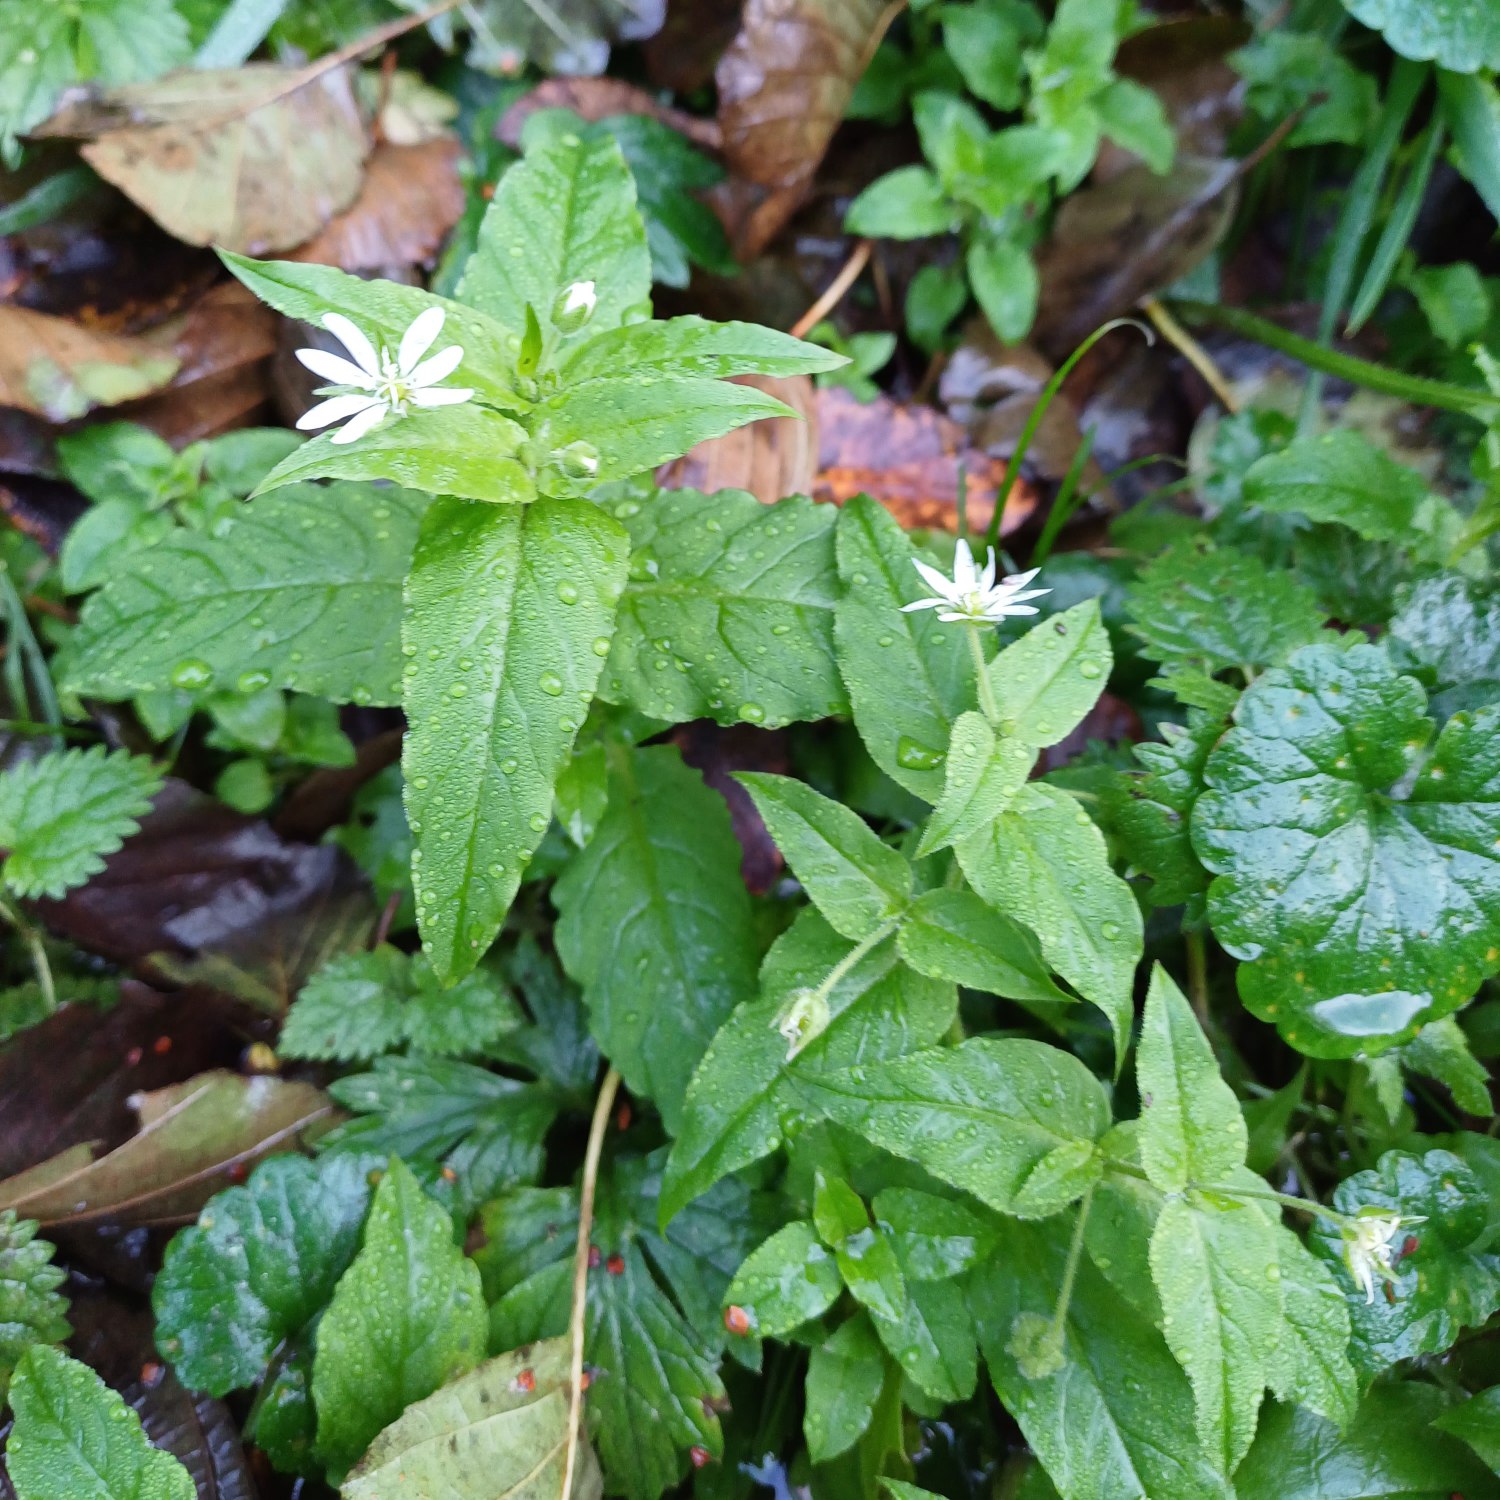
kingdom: Plantae
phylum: Tracheophyta
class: Magnoliopsida
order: Caryophyllales
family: Caryophyllaceae
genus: Stellaria
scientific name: Stellaria aquatica
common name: Kløvkrone
